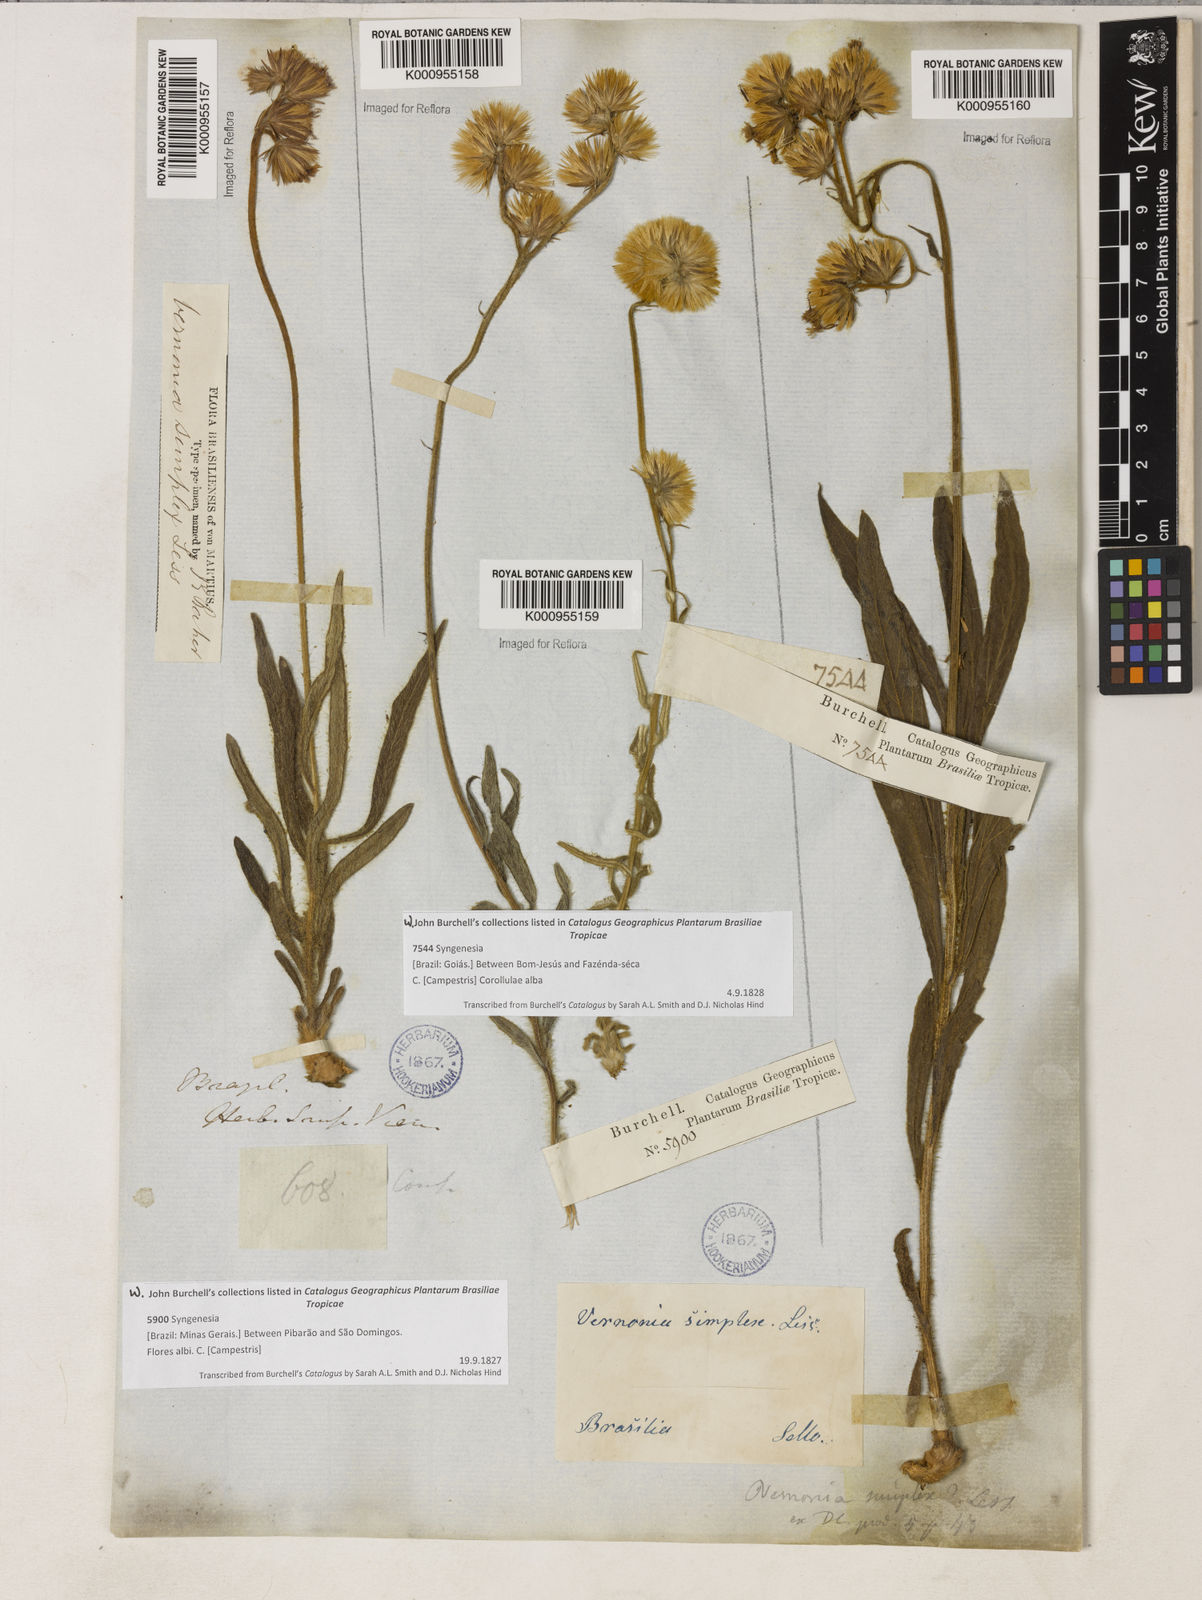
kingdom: Plantae
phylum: Tracheophyta
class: Magnoliopsida
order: Asterales
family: Asteraceae
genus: Chrysolaena
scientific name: Chrysolaena simplex
